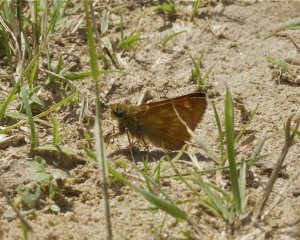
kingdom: Animalia
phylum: Arthropoda
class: Insecta
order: Lepidoptera
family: Hesperiidae
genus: Hesperia
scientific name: Hesperia sassacus
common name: Sassacus Skipper
